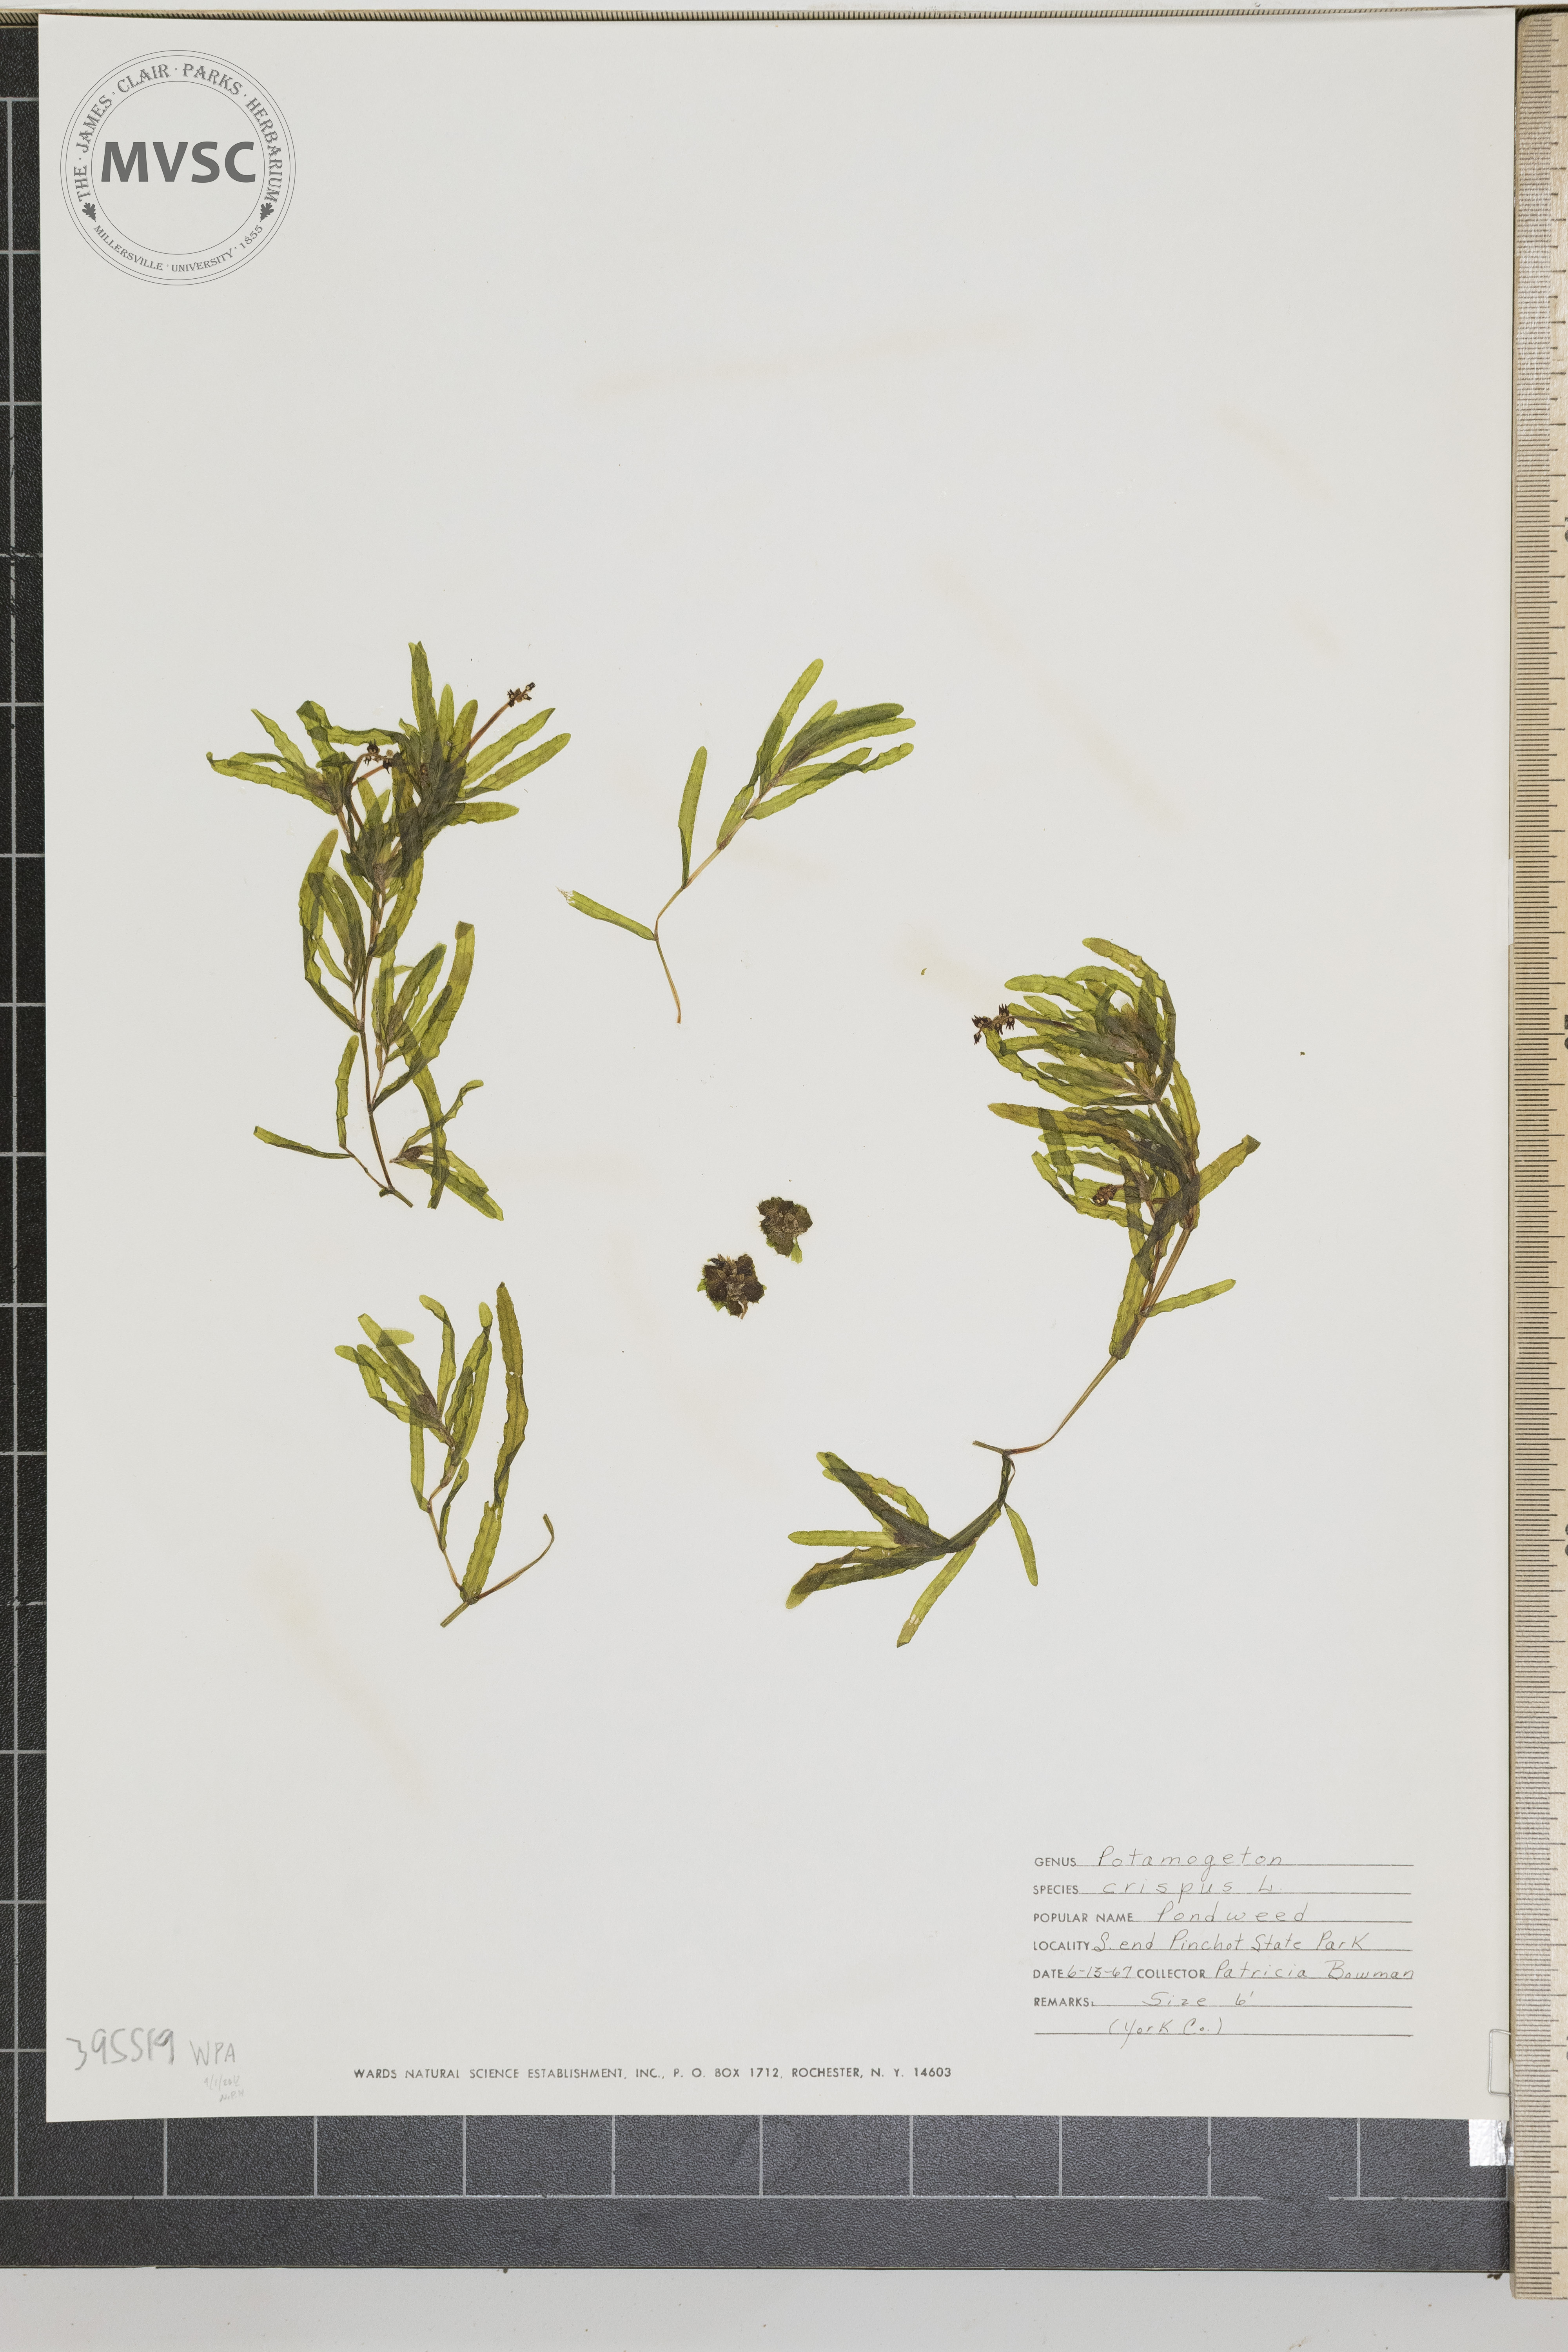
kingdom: Plantae
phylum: Tracheophyta
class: Liliopsida
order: Alismatales
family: Potamogetonaceae
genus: Potamogeton
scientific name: Potamogeton crispus
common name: curly pondweed
